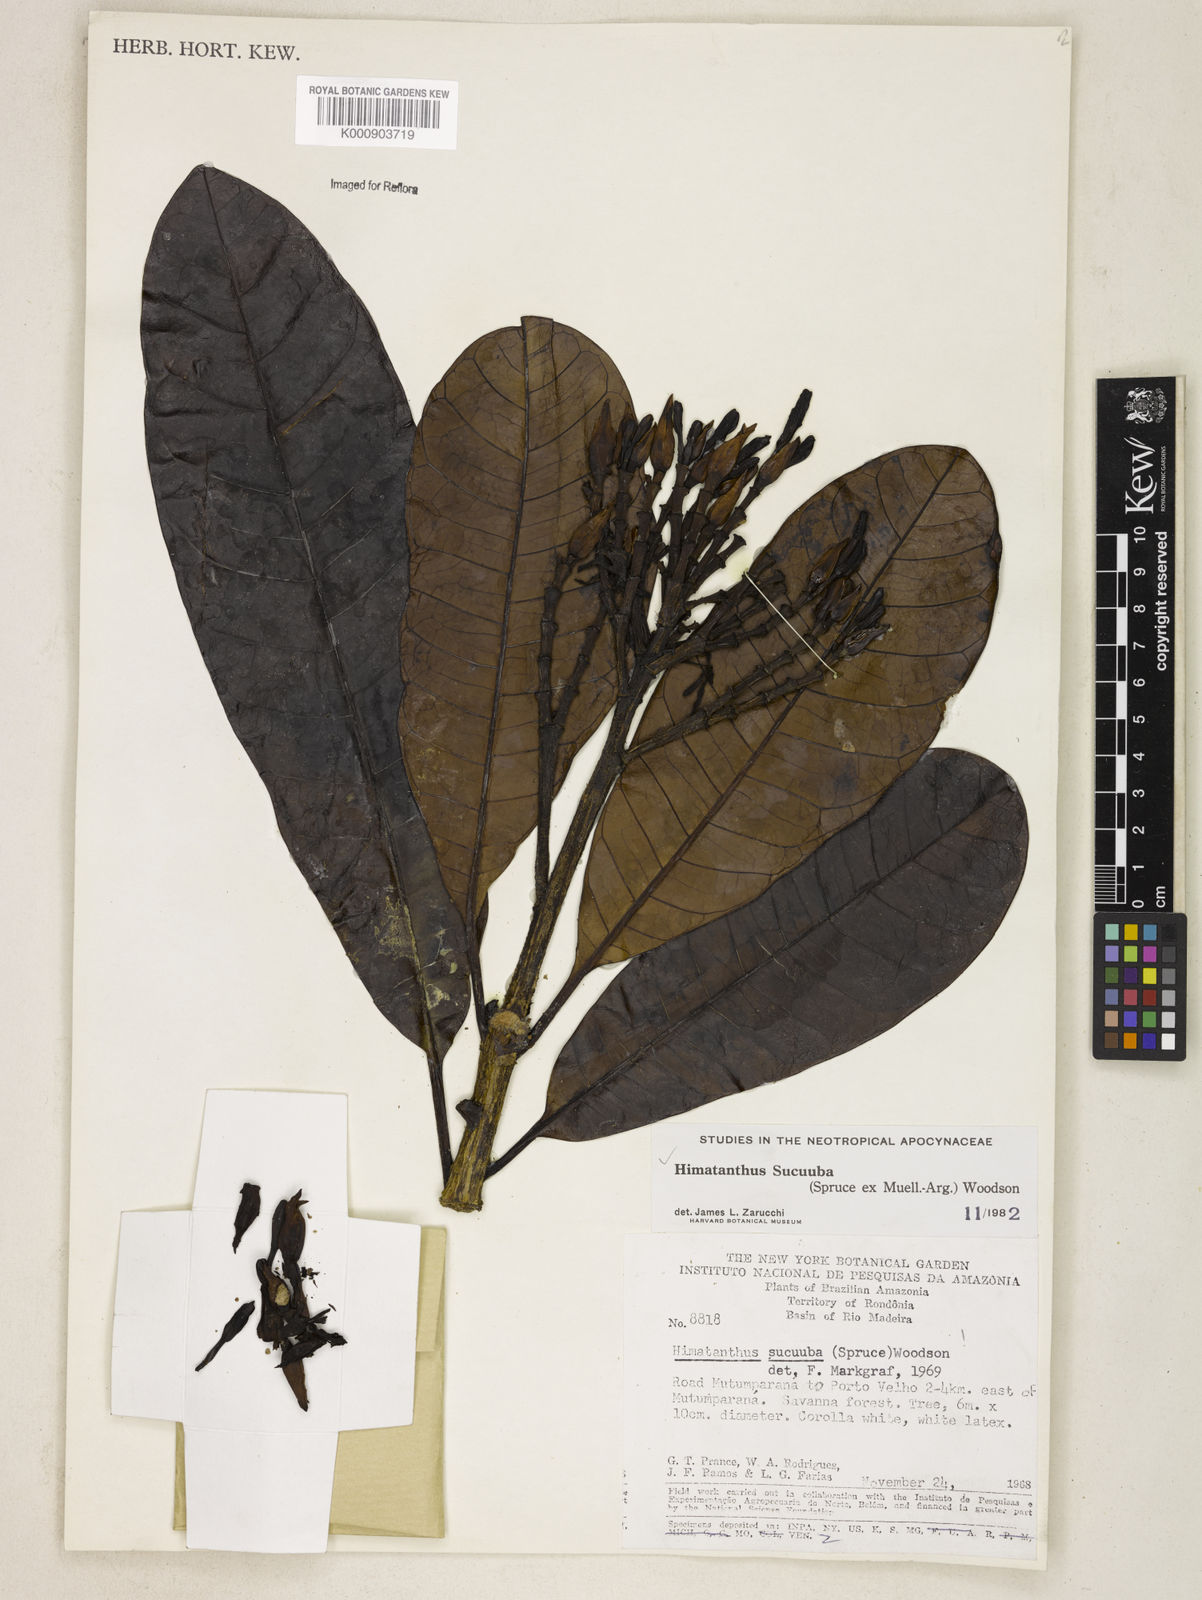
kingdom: Plantae
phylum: Tracheophyta
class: Magnoliopsida
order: Gentianales
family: Apocynaceae
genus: Himatanthus
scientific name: Himatanthus articulatus
